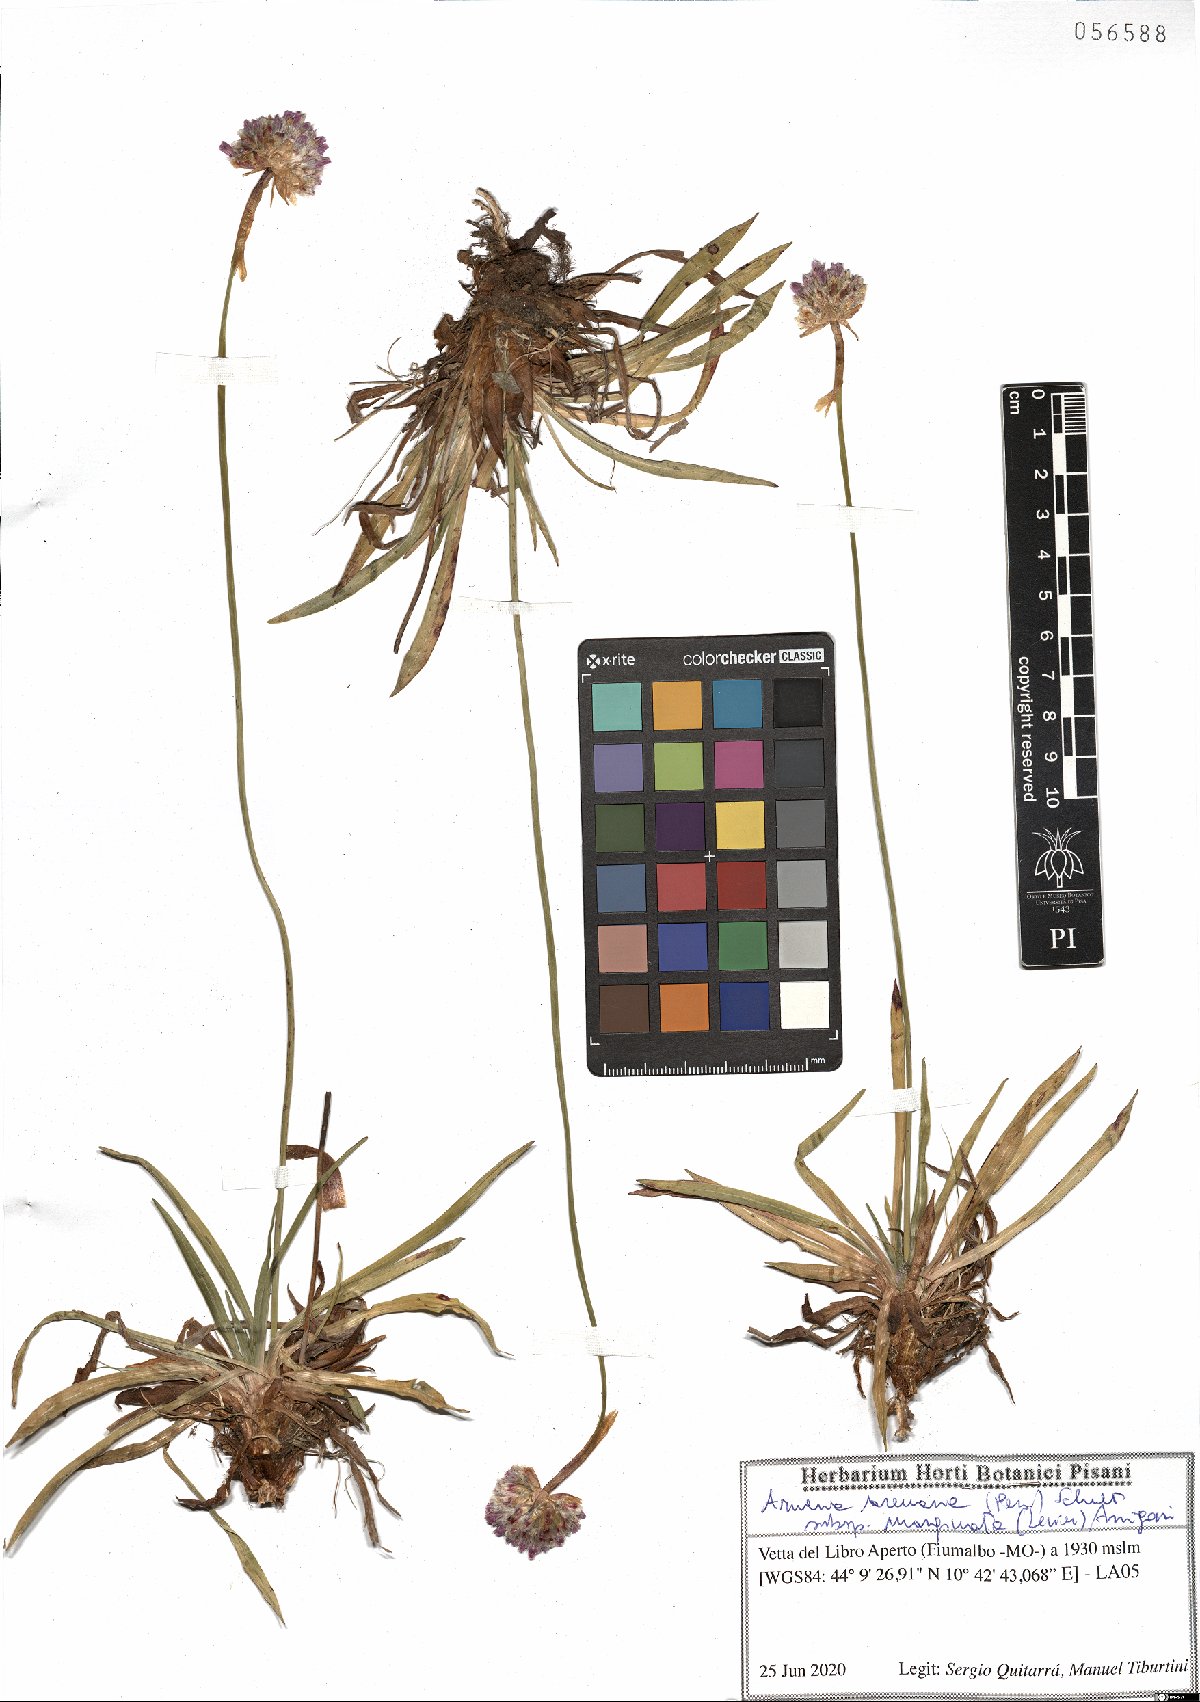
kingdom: Plantae
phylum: Tracheophyta
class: Magnoliopsida
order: Caryophyllales
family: Plumbaginaceae
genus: Armeria
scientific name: Armeria arenaria
